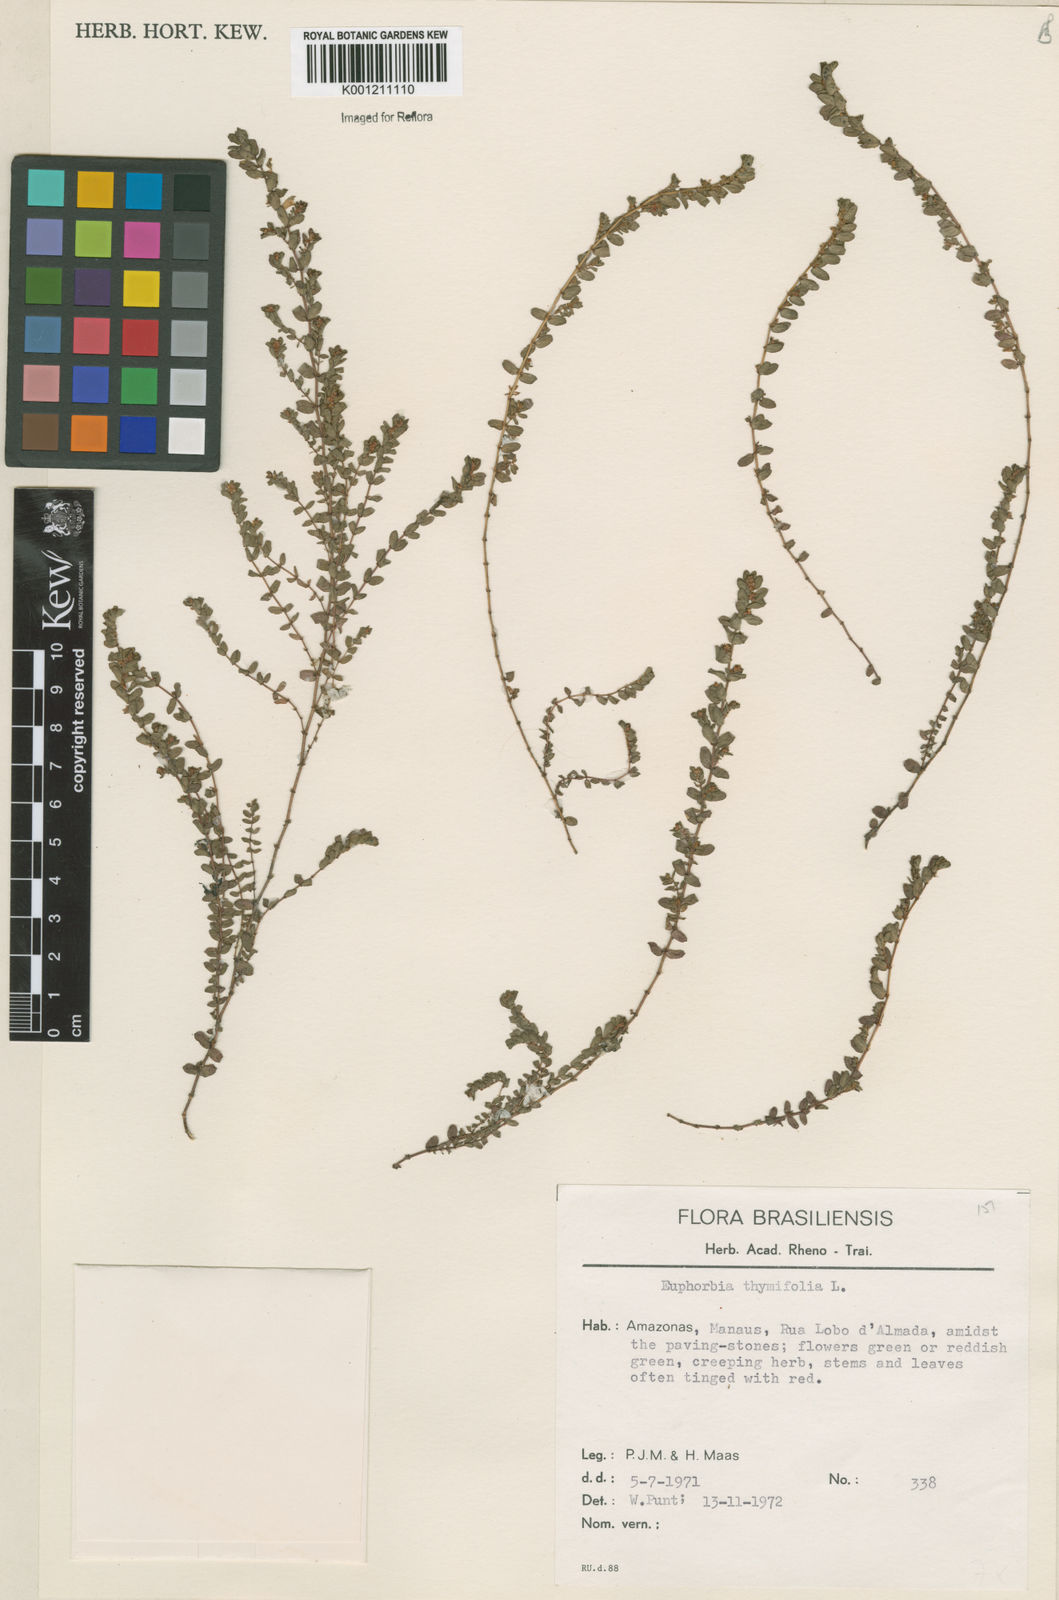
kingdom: Plantae
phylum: Tracheophyta
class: Magnoliopsida
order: Malpighiales
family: Euphorbiaceae
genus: Euphorbia
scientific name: Euphorbia thymifolia
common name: Gulf sandmat
